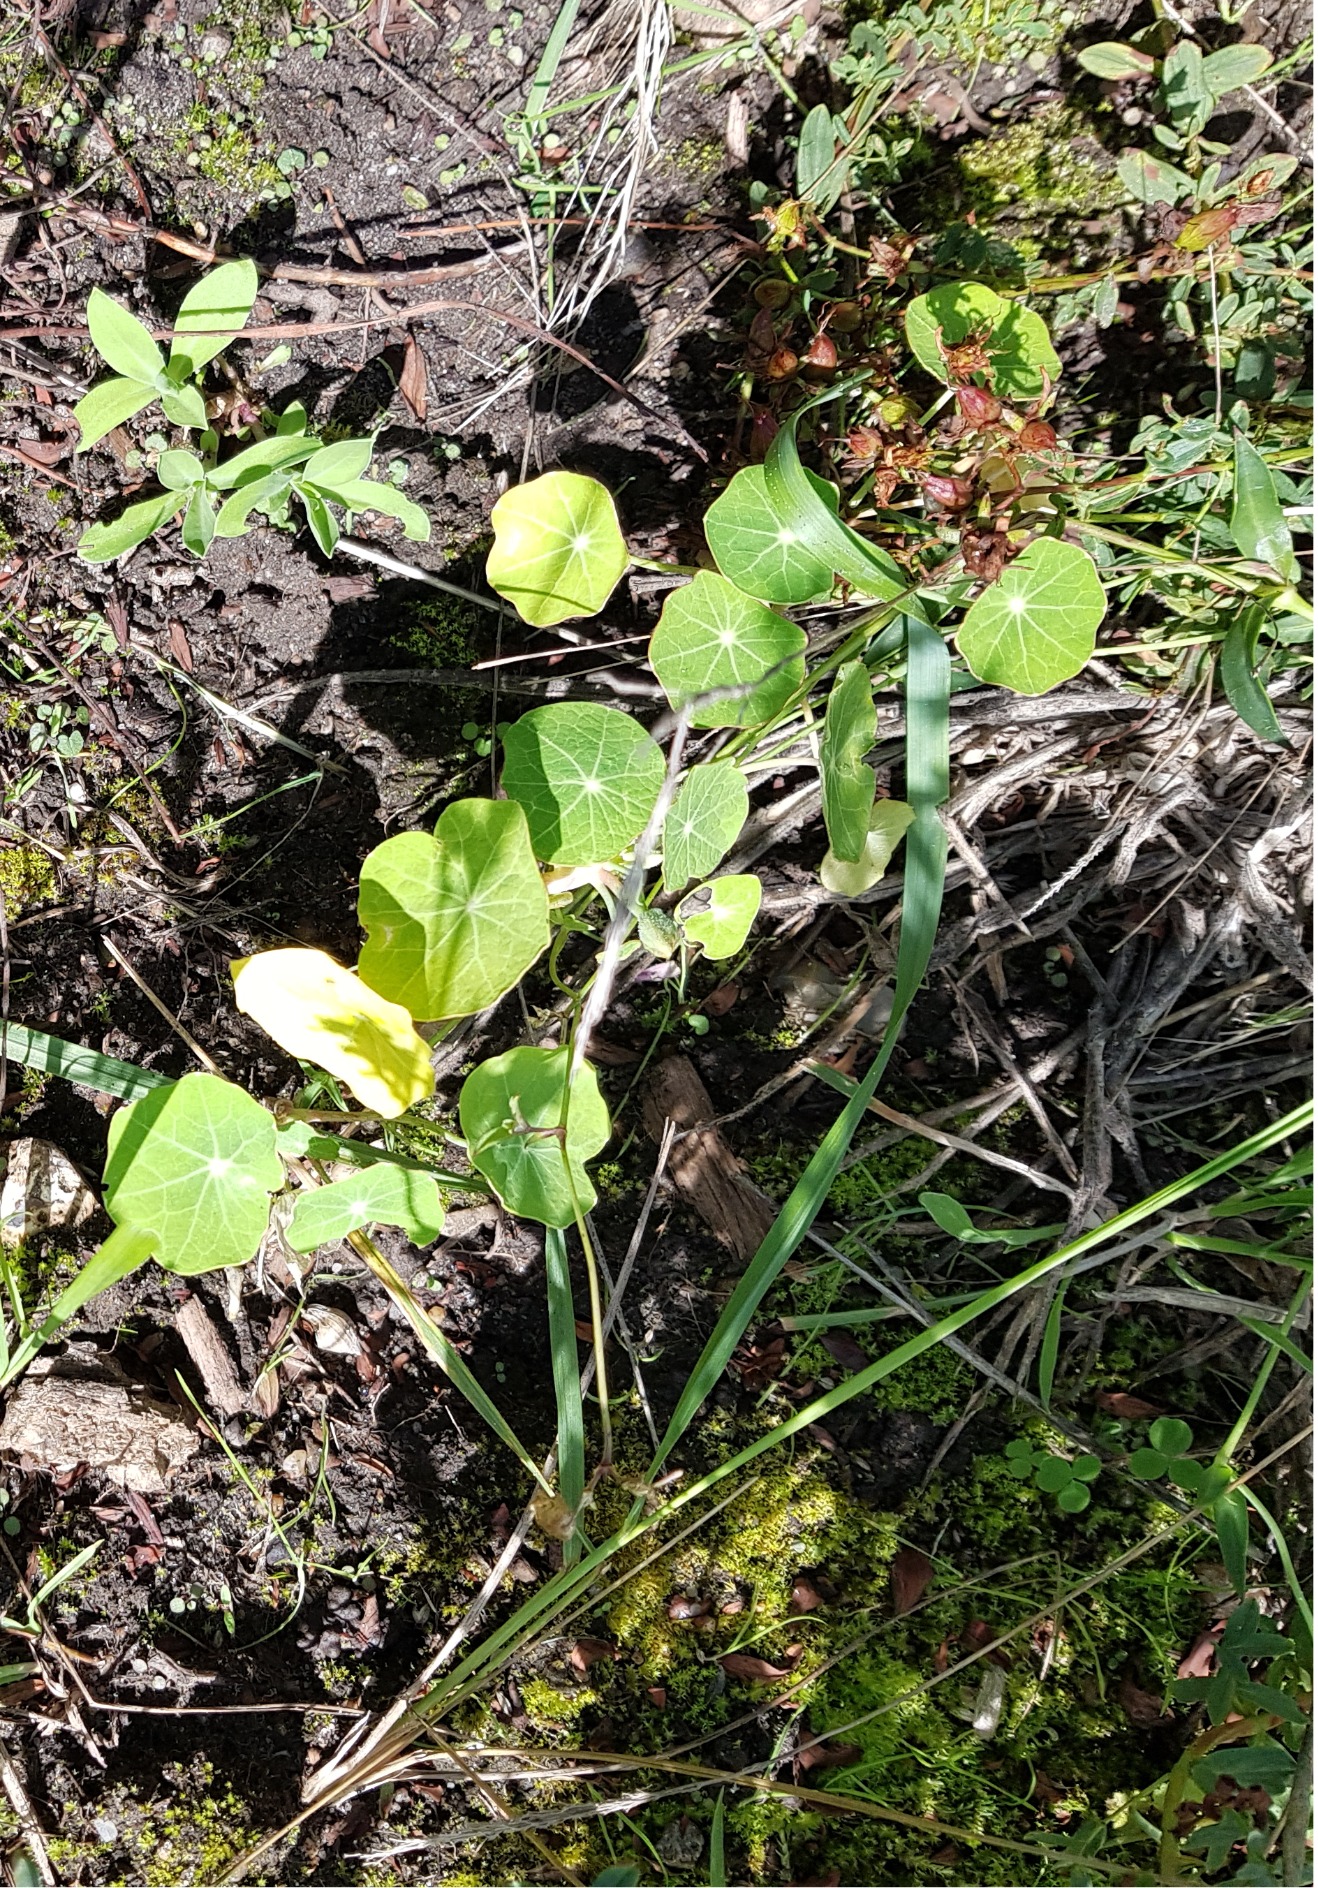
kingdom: Plantae
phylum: Tracheophyta
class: Magnoliopsida
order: Brassicales
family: Tropaeolaceae
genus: Tropaeolum
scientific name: Tropaeolum majus
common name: Blomsterkarse
